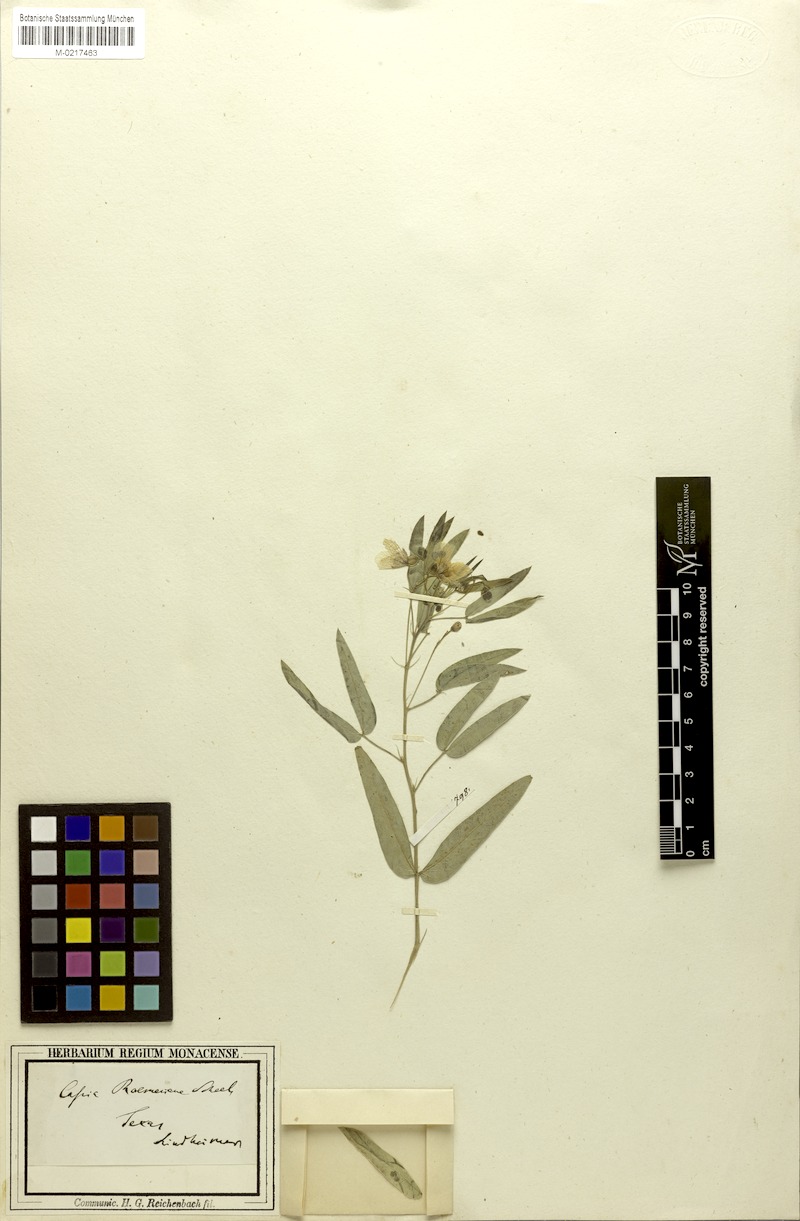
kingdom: Plantae
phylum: Tracheophyta
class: Magnoliopsida
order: Fabales
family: Fabaceae
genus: Senna
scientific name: Senna roemeriana
